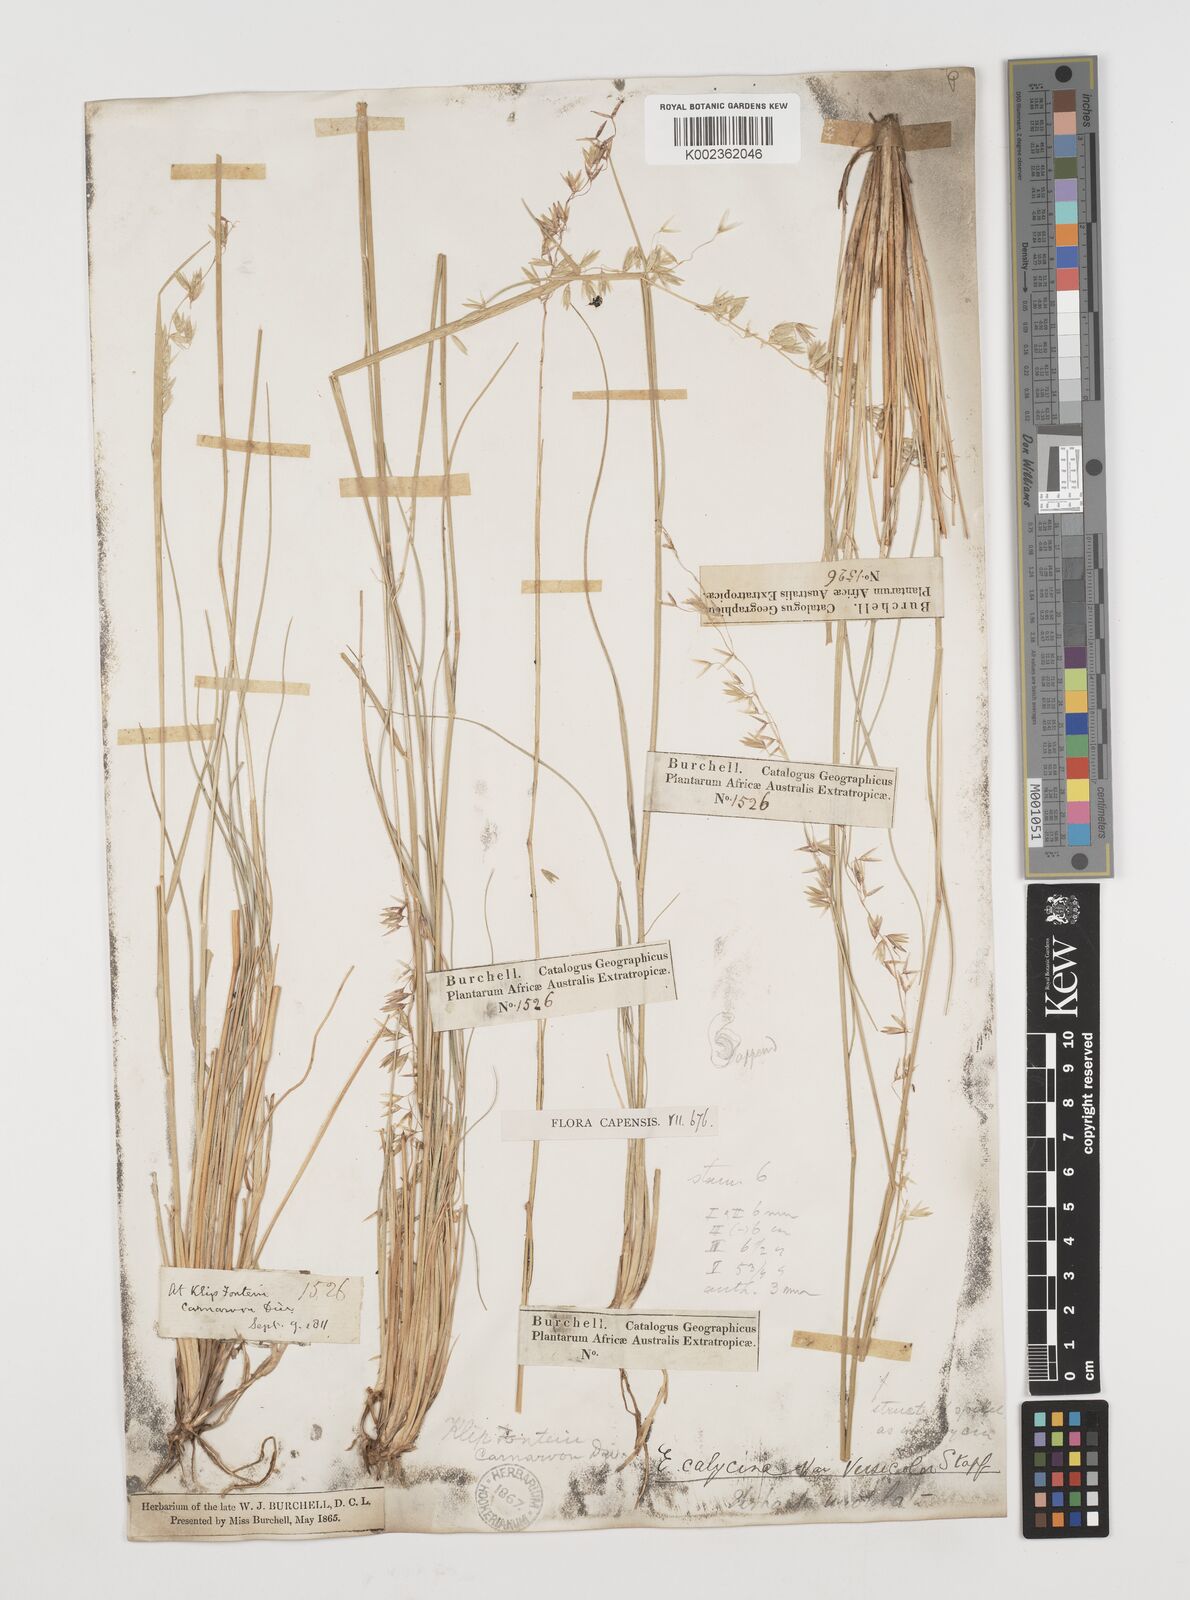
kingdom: Plantae
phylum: Tracheophyta
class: Liliopsida
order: Poales
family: Poaceae
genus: Ehrharta
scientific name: Ehrharta calycina
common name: Perennial veldtgrass
